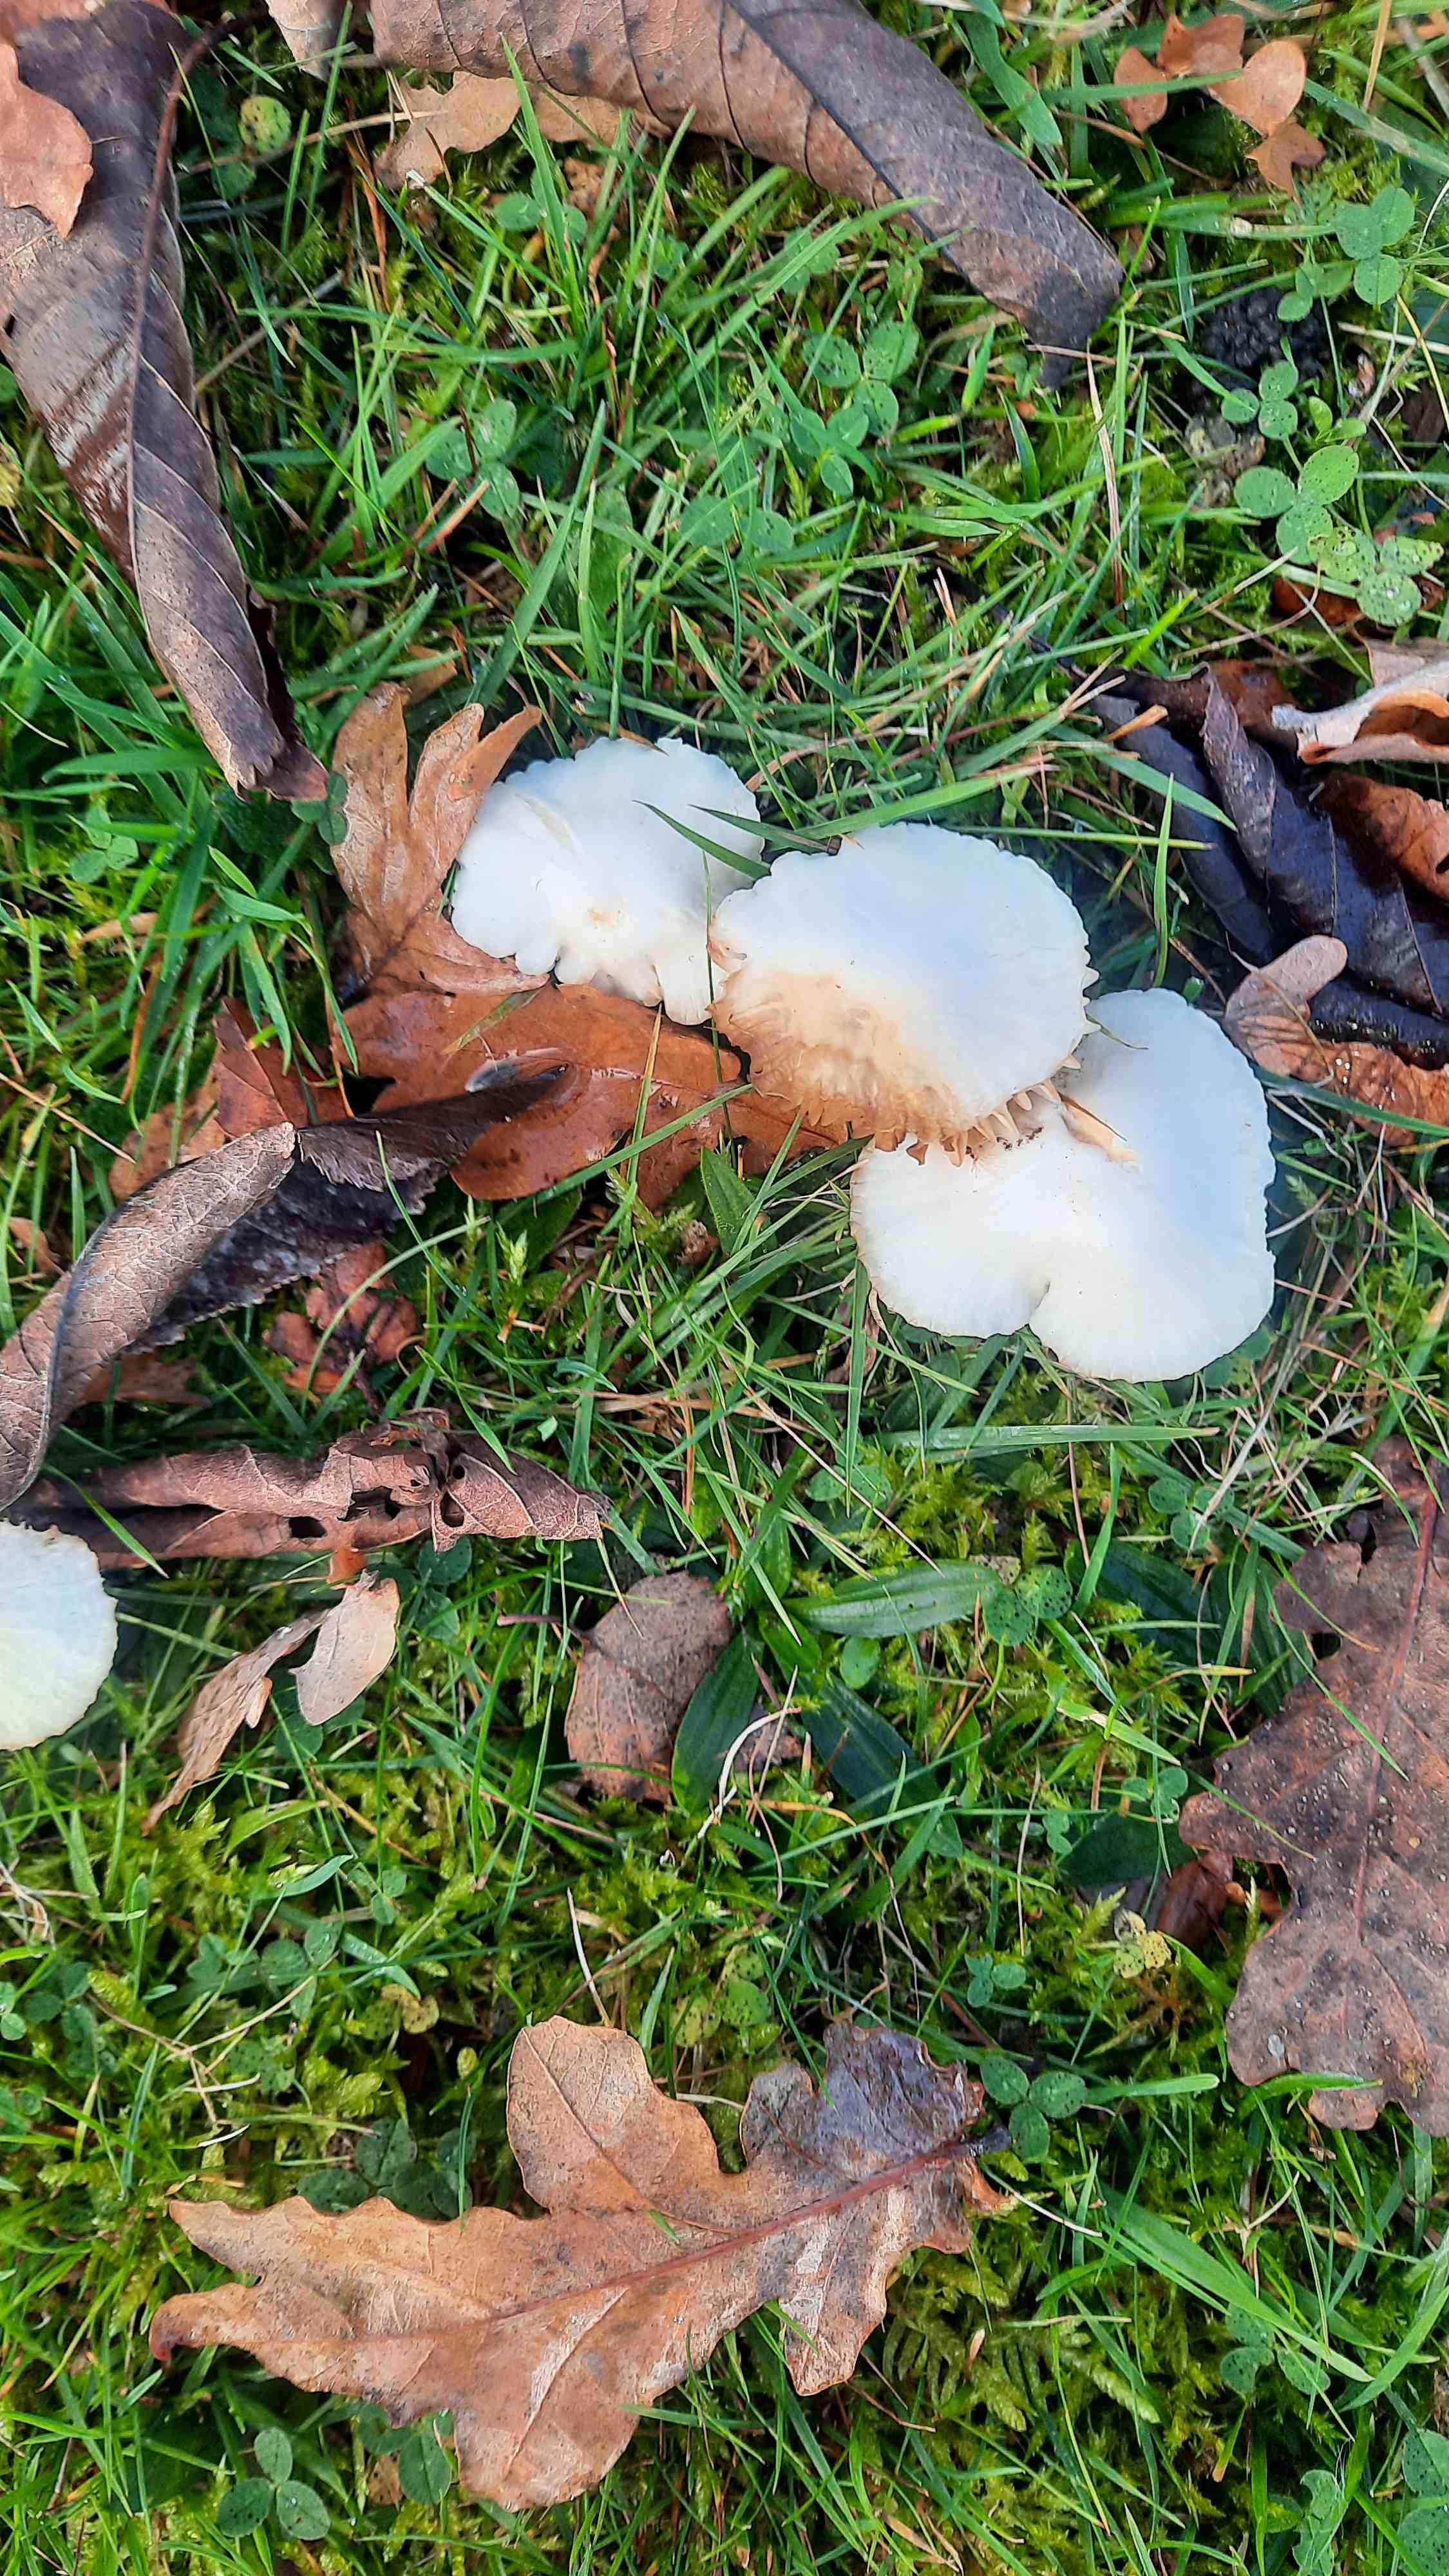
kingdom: Fungi
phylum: Basidiomycota
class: Agaricomycetes
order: Agaricales
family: Hygrophoraceae
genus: Cuphophyllus
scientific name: Cuphophyllus virgineus
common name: snehvid vokshat
